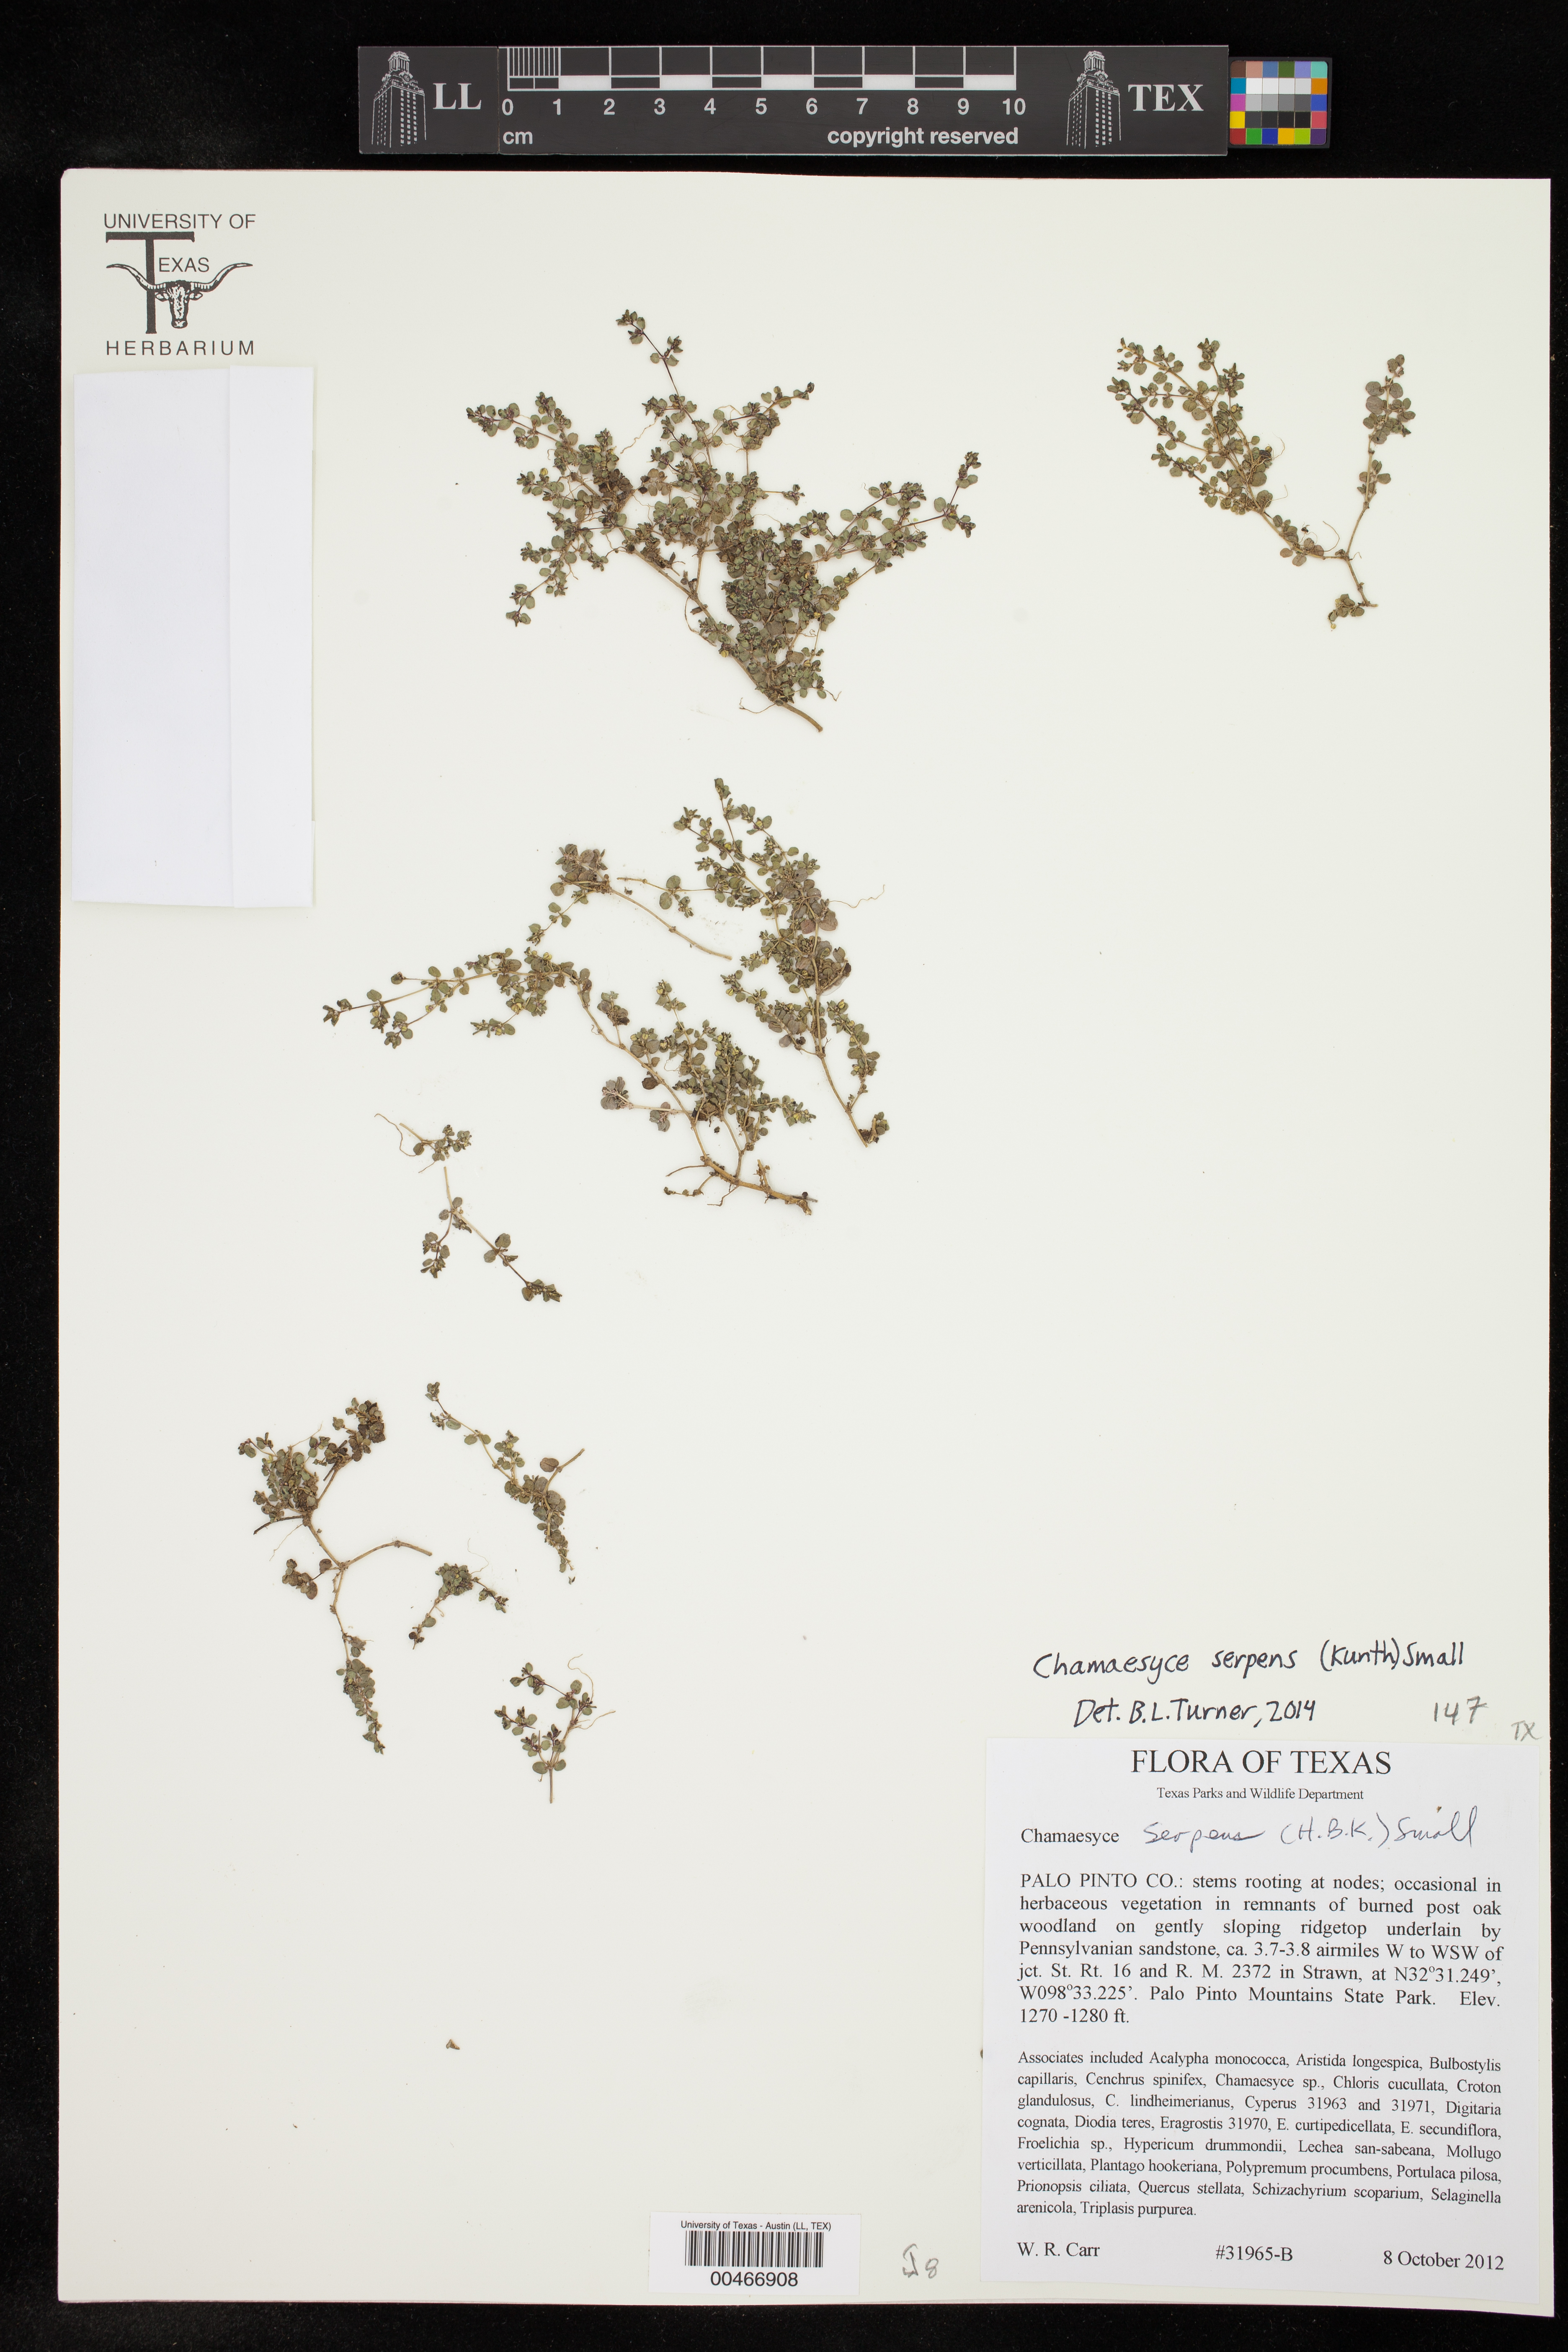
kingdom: Plantae
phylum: Tracheophyta
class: Magnoliopsida
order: Malpighiales
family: Euphorbiaceae
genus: Euphorbia
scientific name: Euphorbia serpens
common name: Matted sandmat
